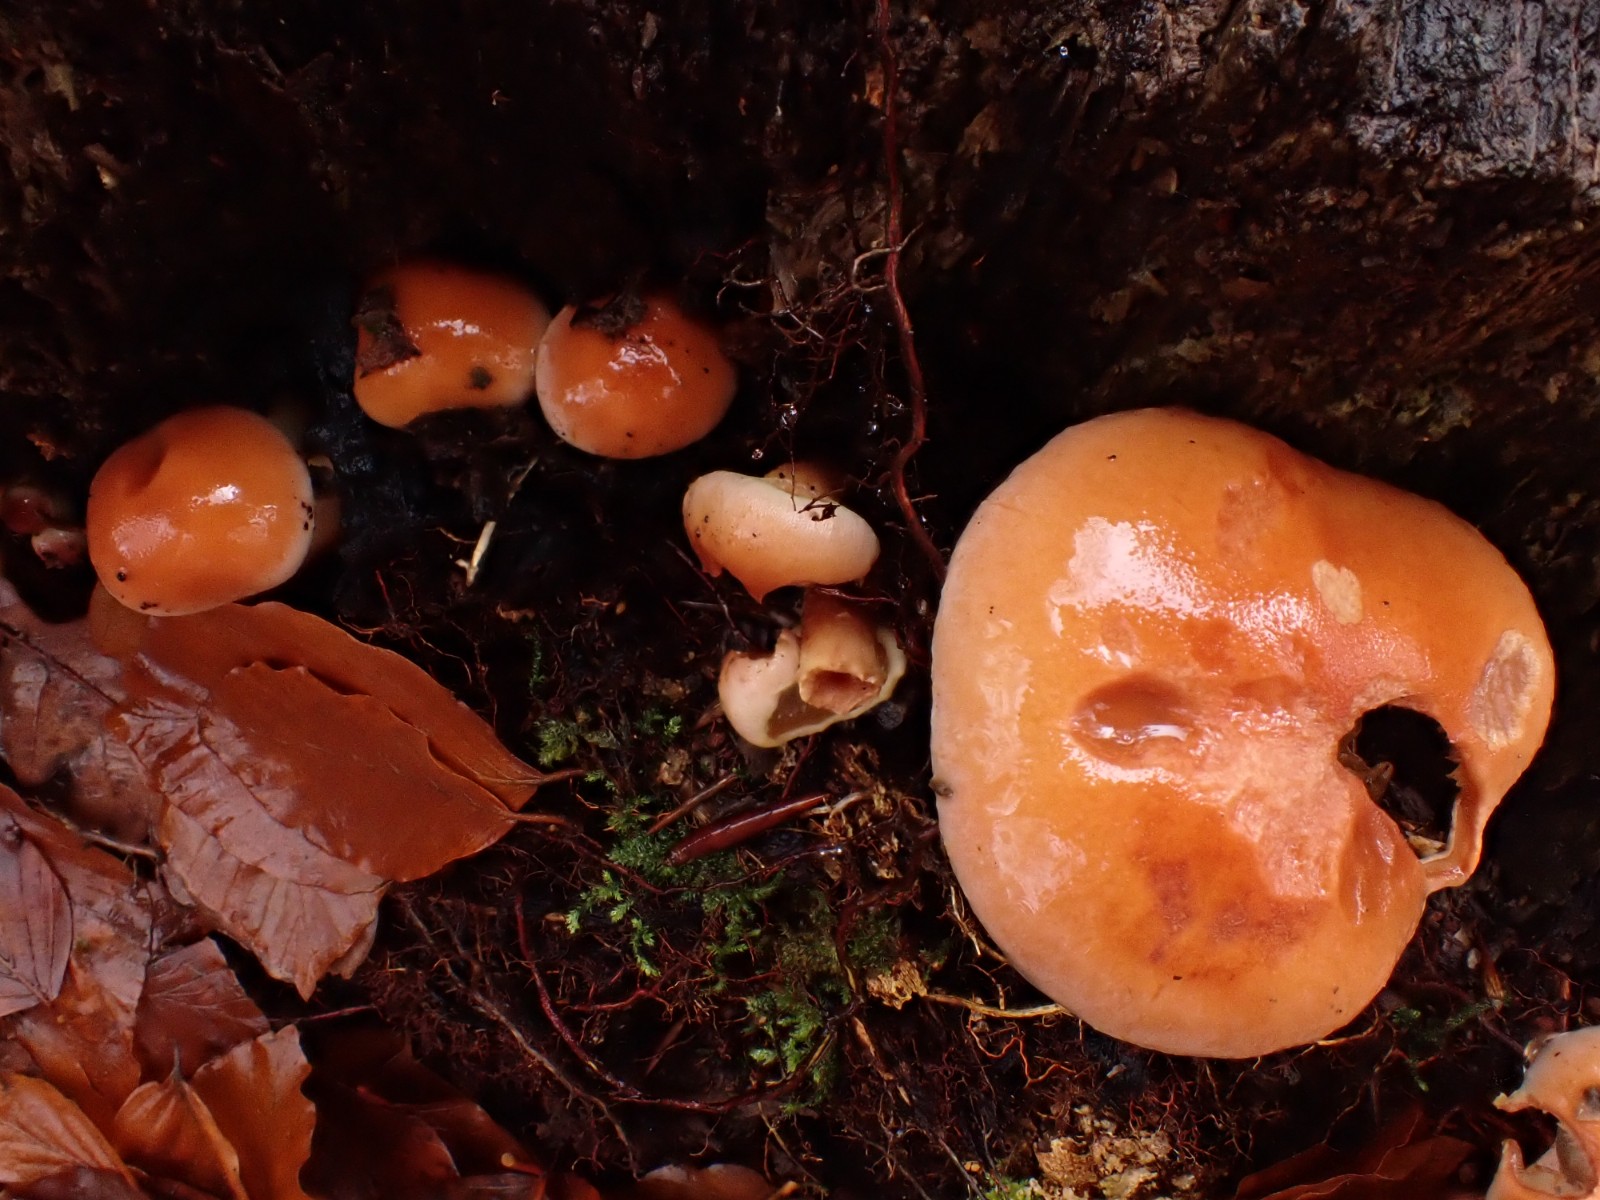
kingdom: Fungi
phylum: Basidiomycota
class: Agaricomycetes
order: Agaricales
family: Strophariaceae
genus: Hypholoma
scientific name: Hypholoma lateritium
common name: teglrød svovlhat
